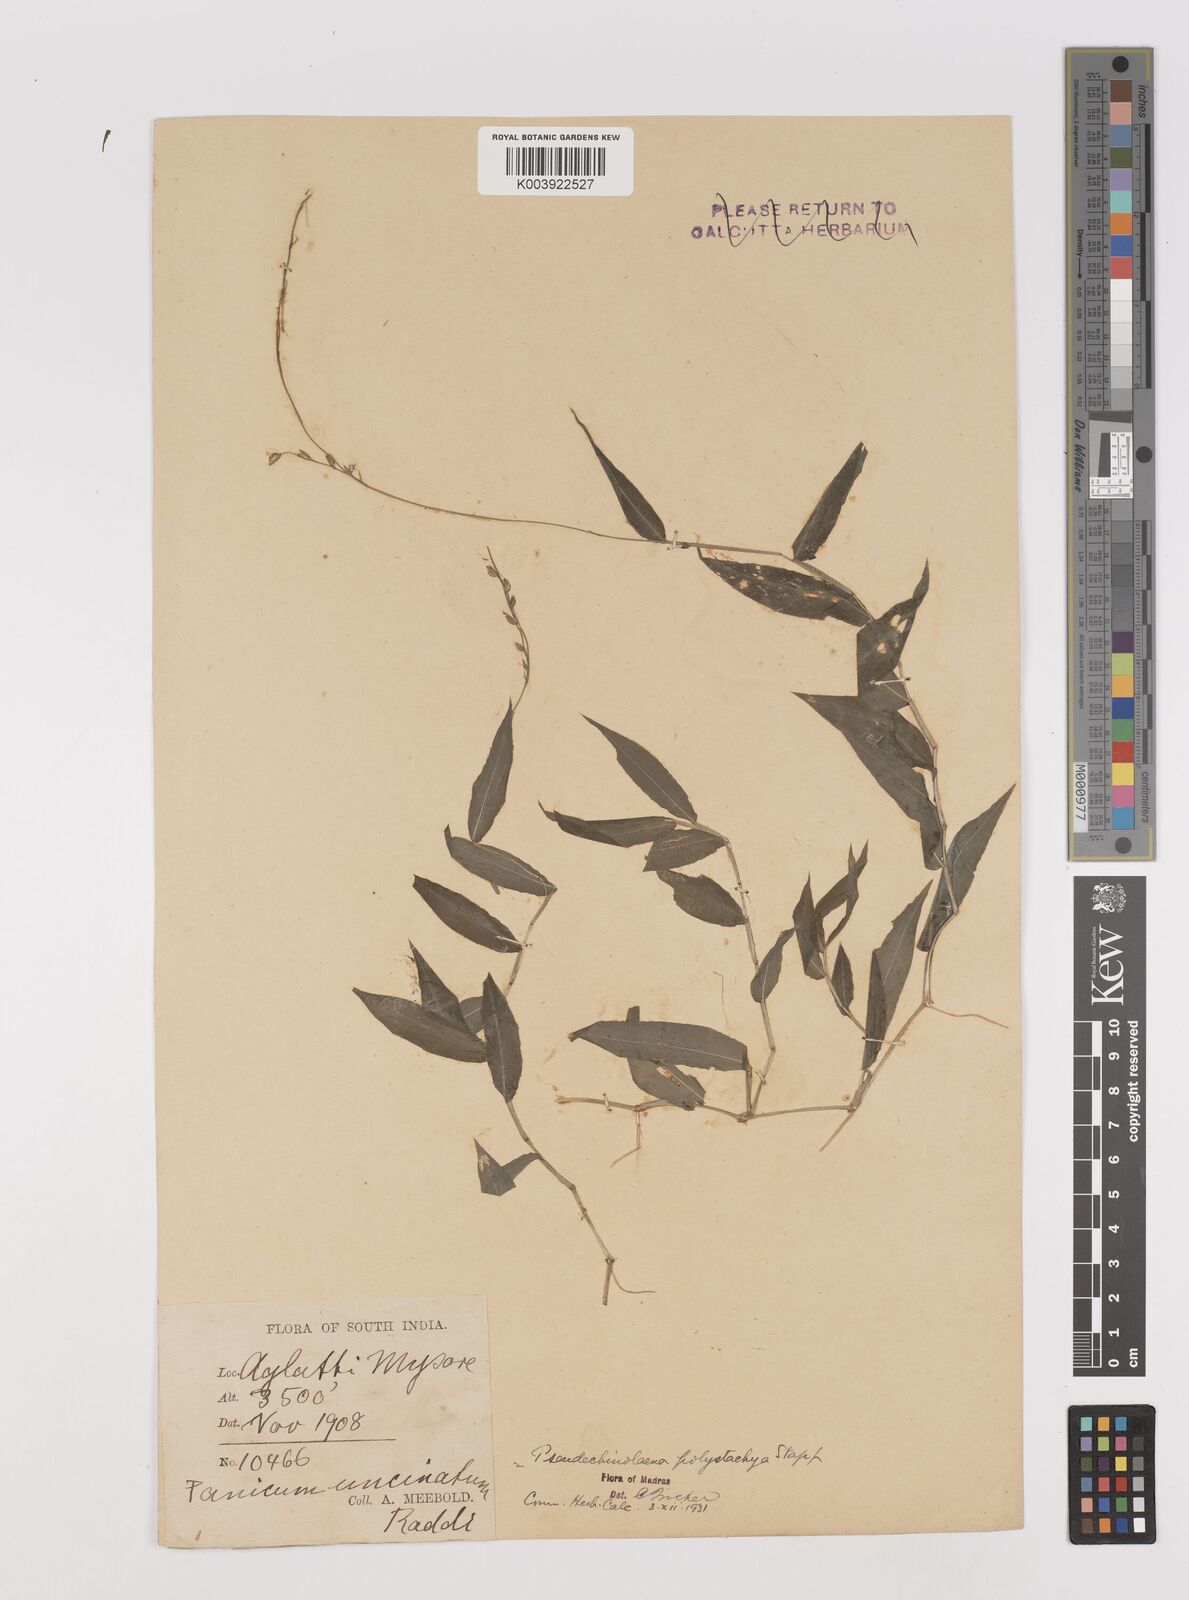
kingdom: Plantae
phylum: Tracheophyta
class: Liliopsida
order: Poales
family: Poaceae
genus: Pseudechinolaena
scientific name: Pseudechinolaena polystachya
